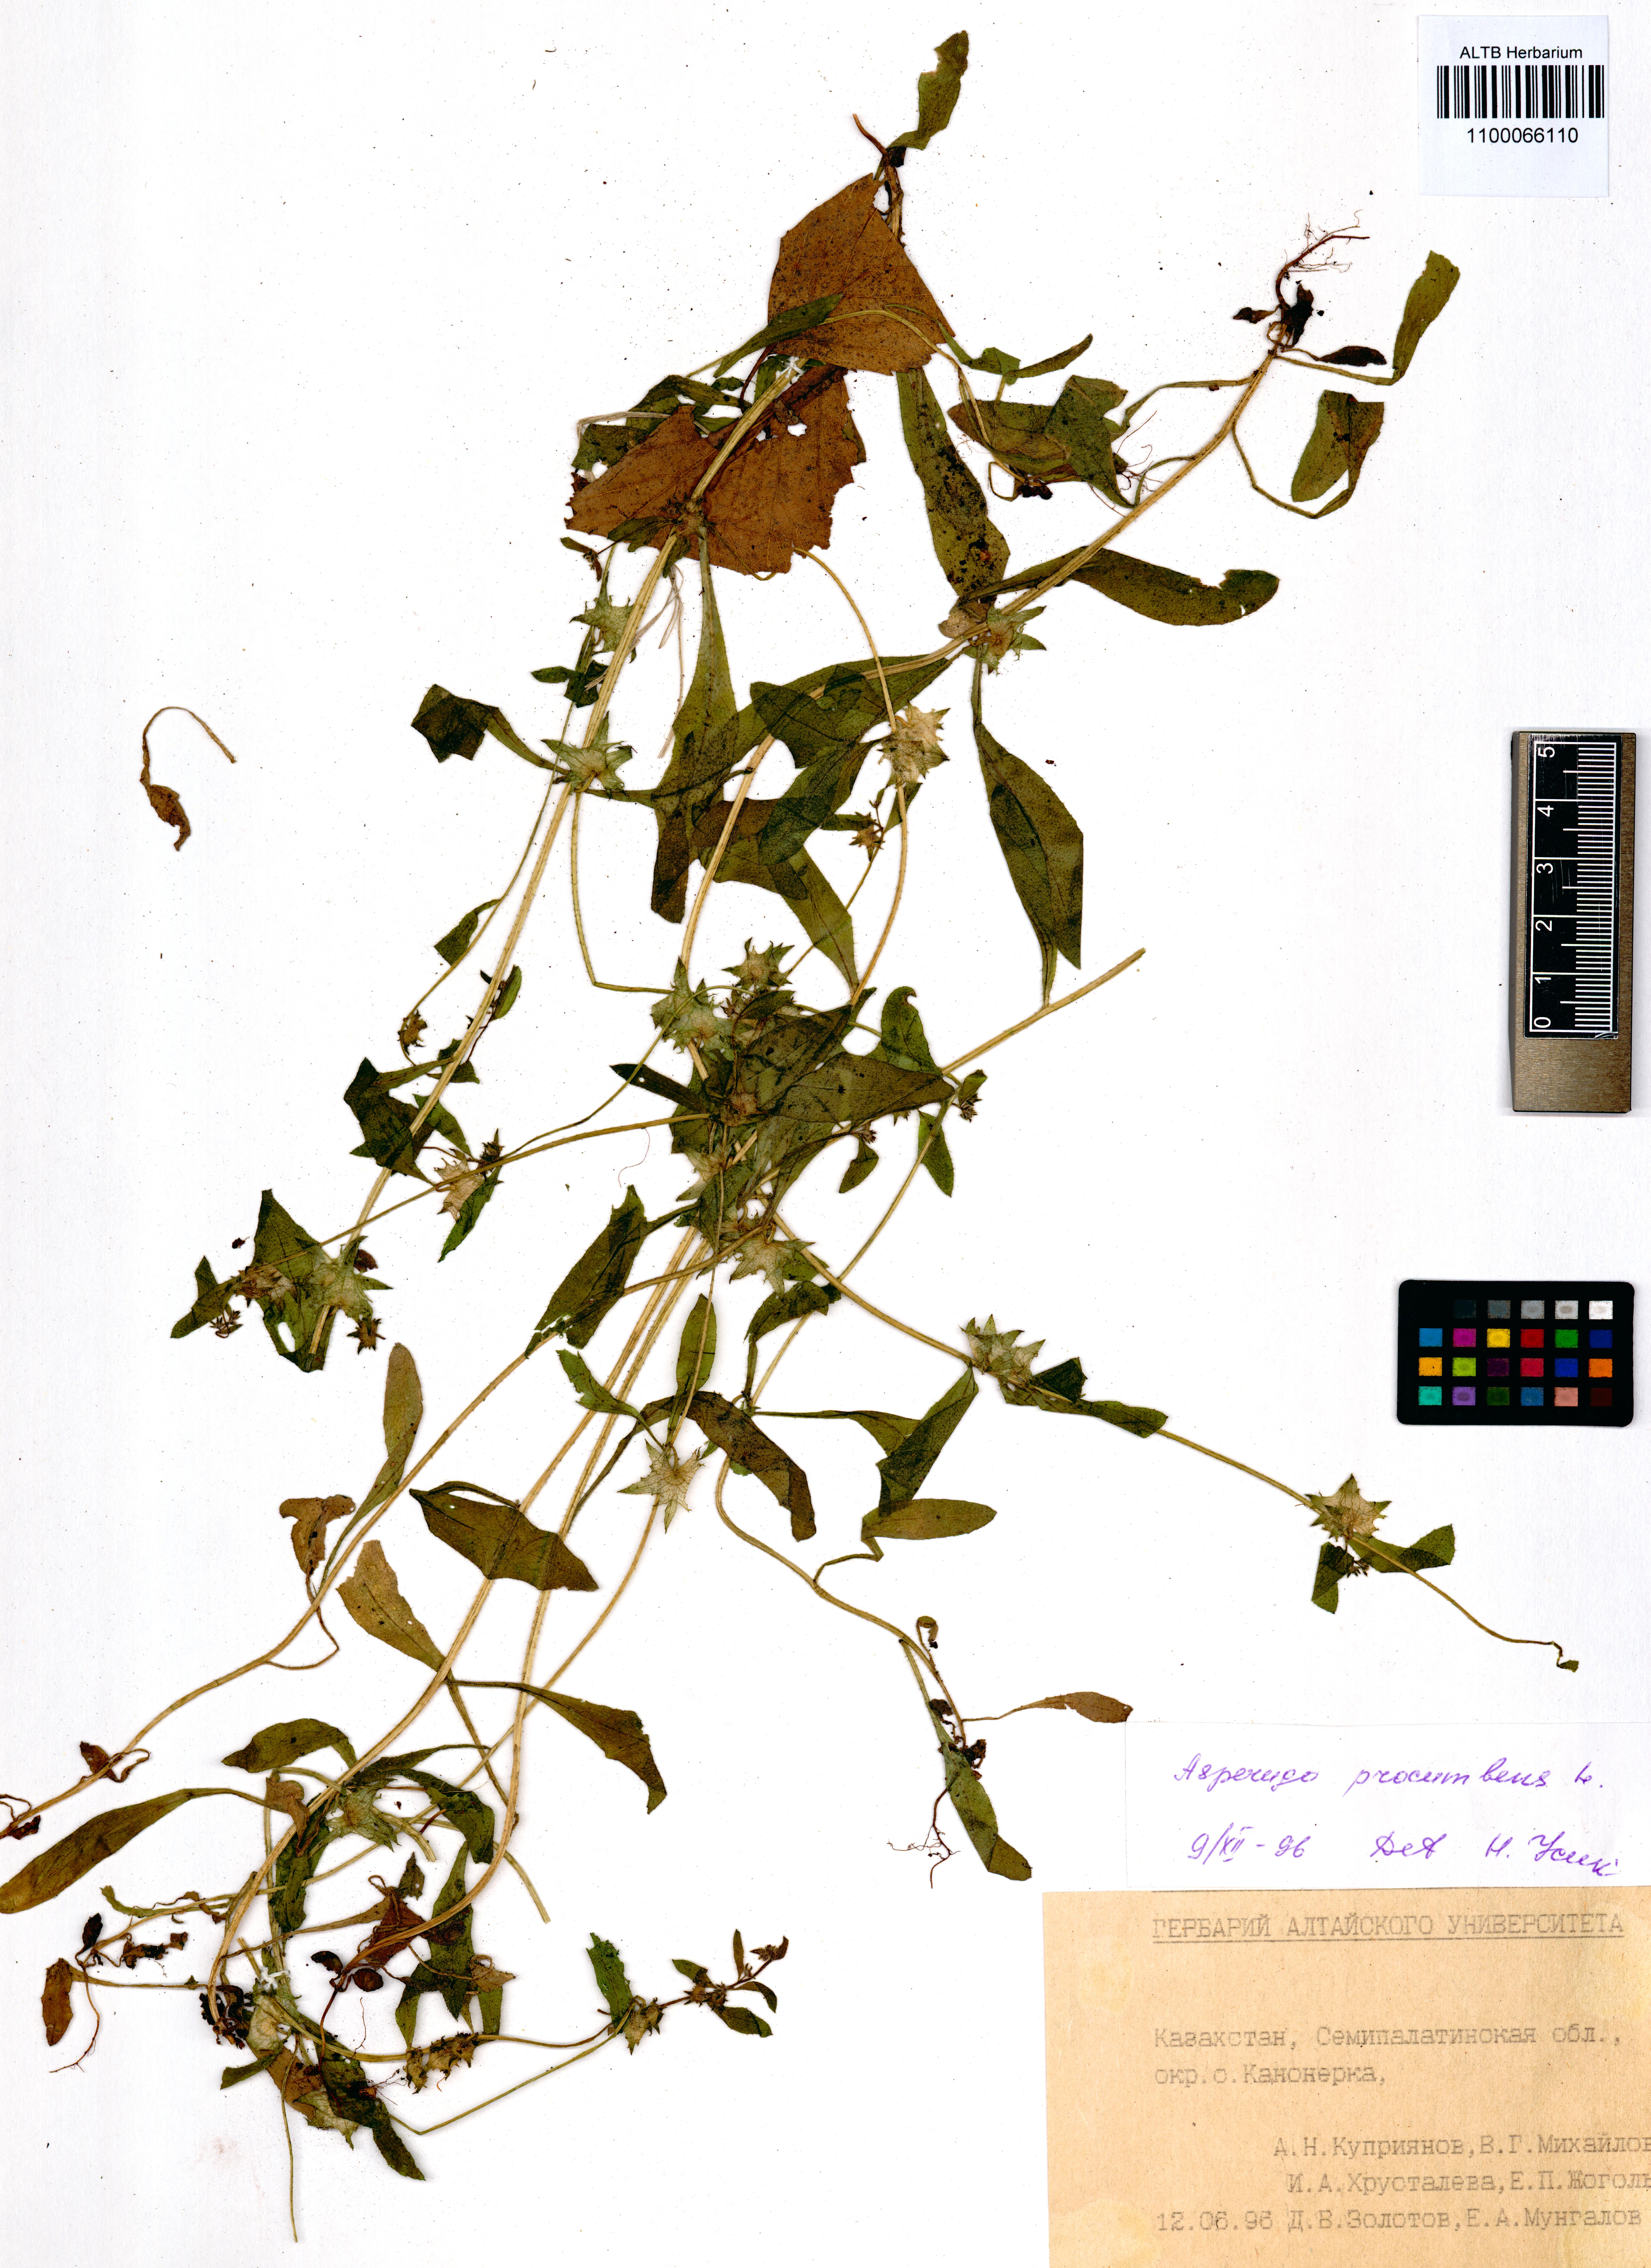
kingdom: Plantae
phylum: Tracheophyta
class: Magnoliopsida
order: Boraginales
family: Boraginaceae
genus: Asperugo
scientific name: Asperugo procumbens
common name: Madwort
